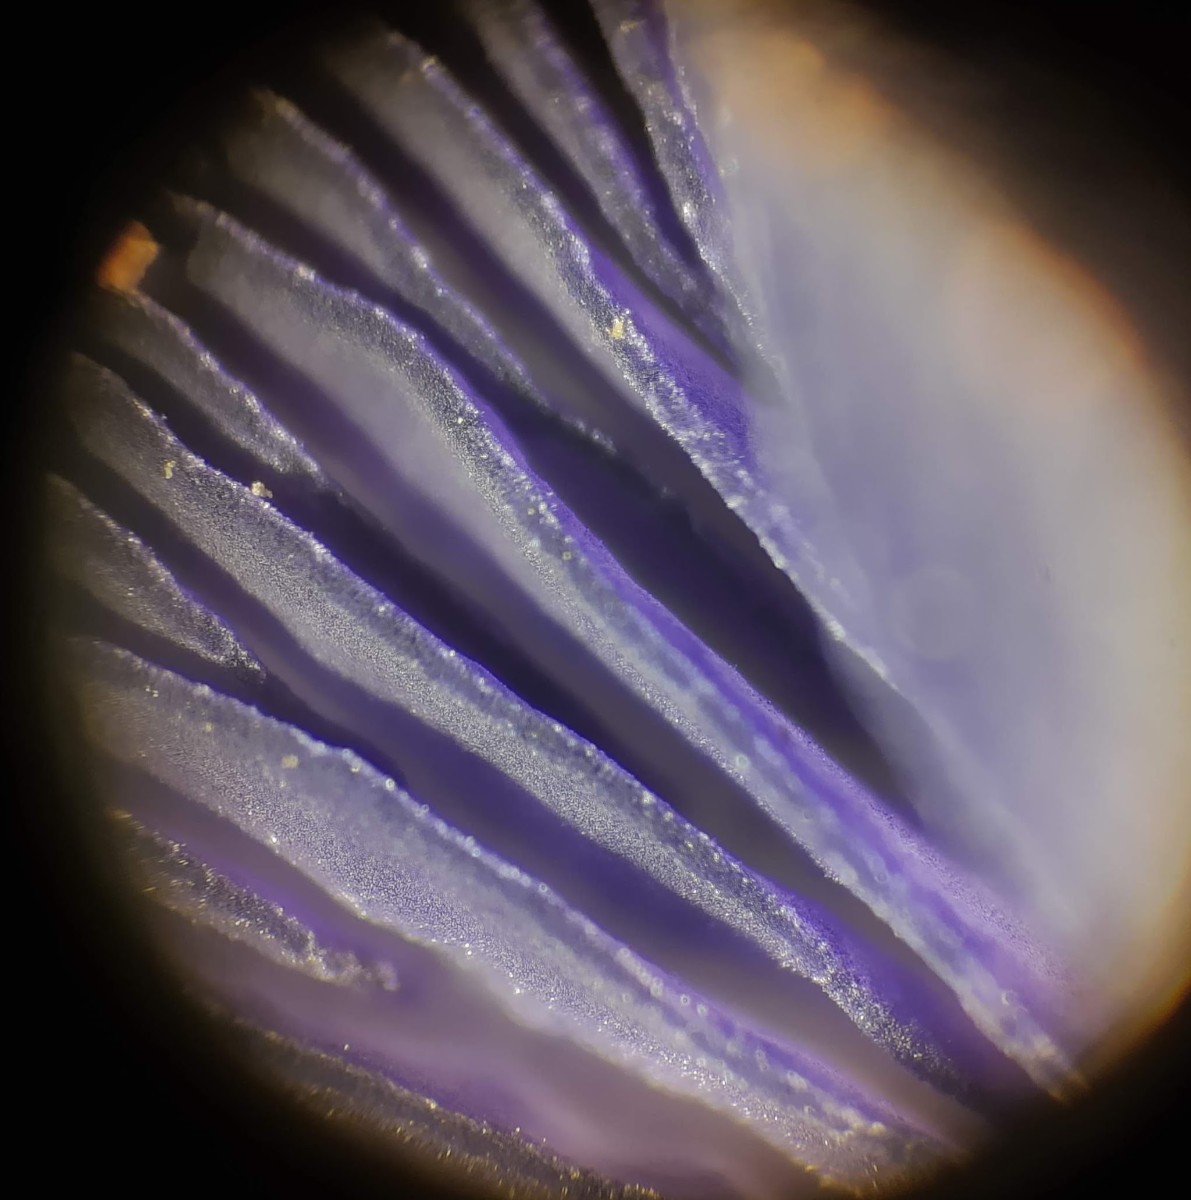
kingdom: Fungi
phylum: Basidiomycota
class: Agaricomycetes
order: Agaricales
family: Entolomataceae
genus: Entoloma
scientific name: Entoloma euchroum
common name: smuk rødblad
